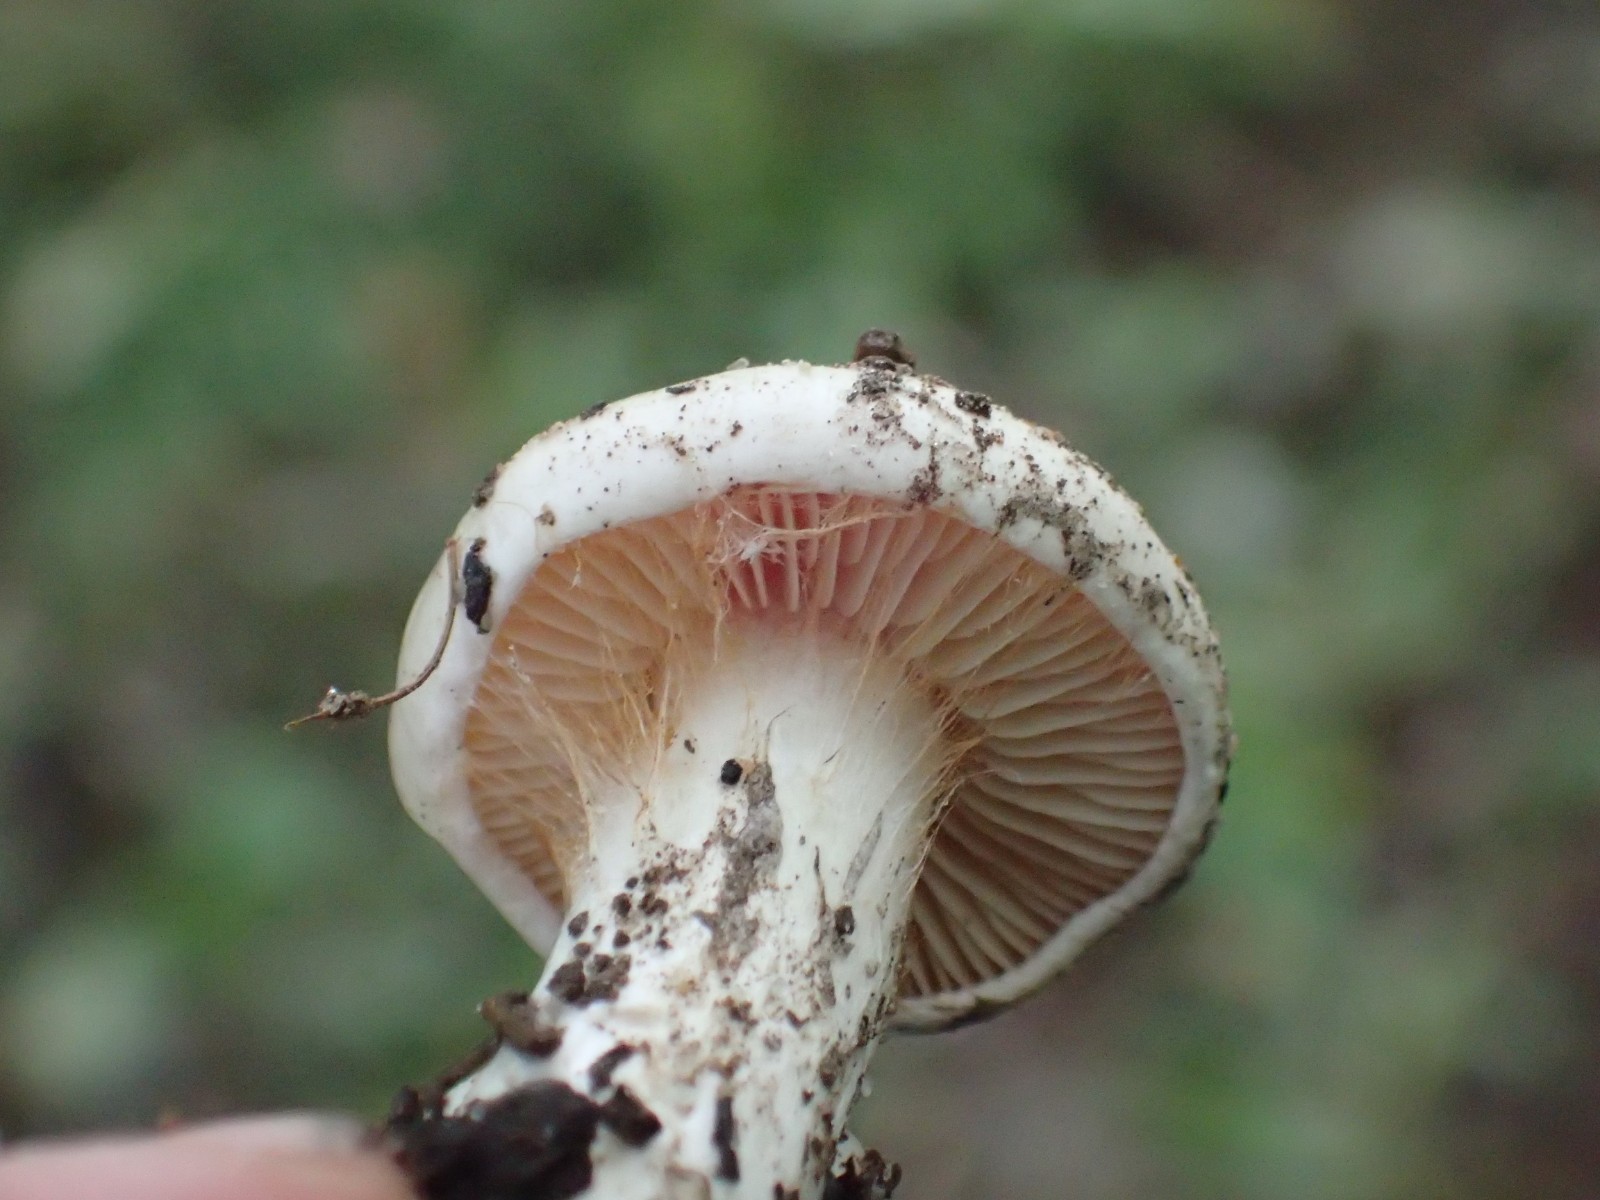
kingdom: Fungi
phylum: Basidiomycota
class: Agaricomycetes
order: Agaricales
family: Cortinariaceae
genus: Cortinarius
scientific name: Cortinarius
